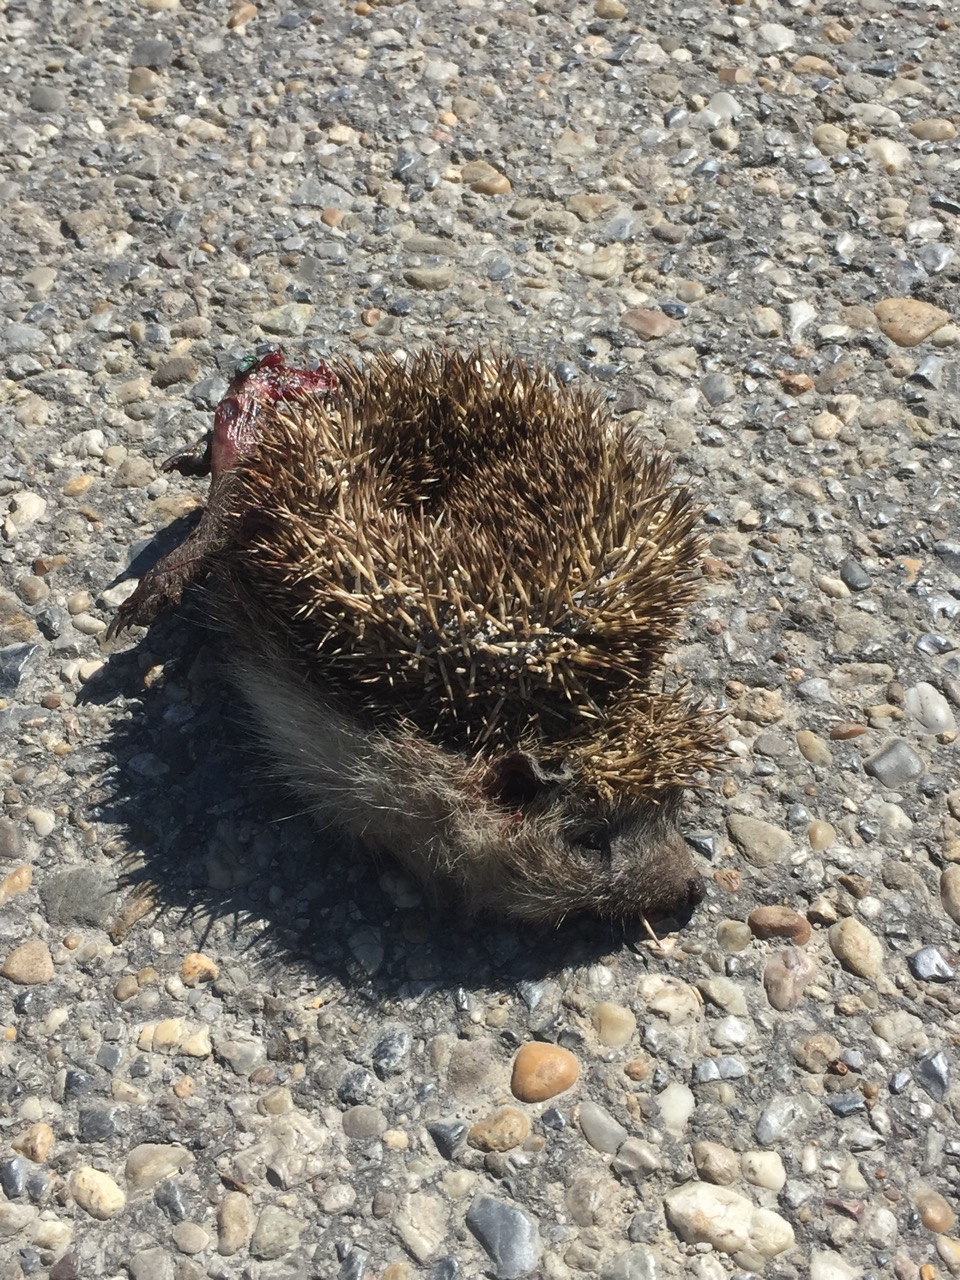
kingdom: Animalia
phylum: Chordata
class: Mammalia
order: Erinaceomorpha
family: Erinaceidae
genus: Erinaceus
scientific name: Erinaceus
